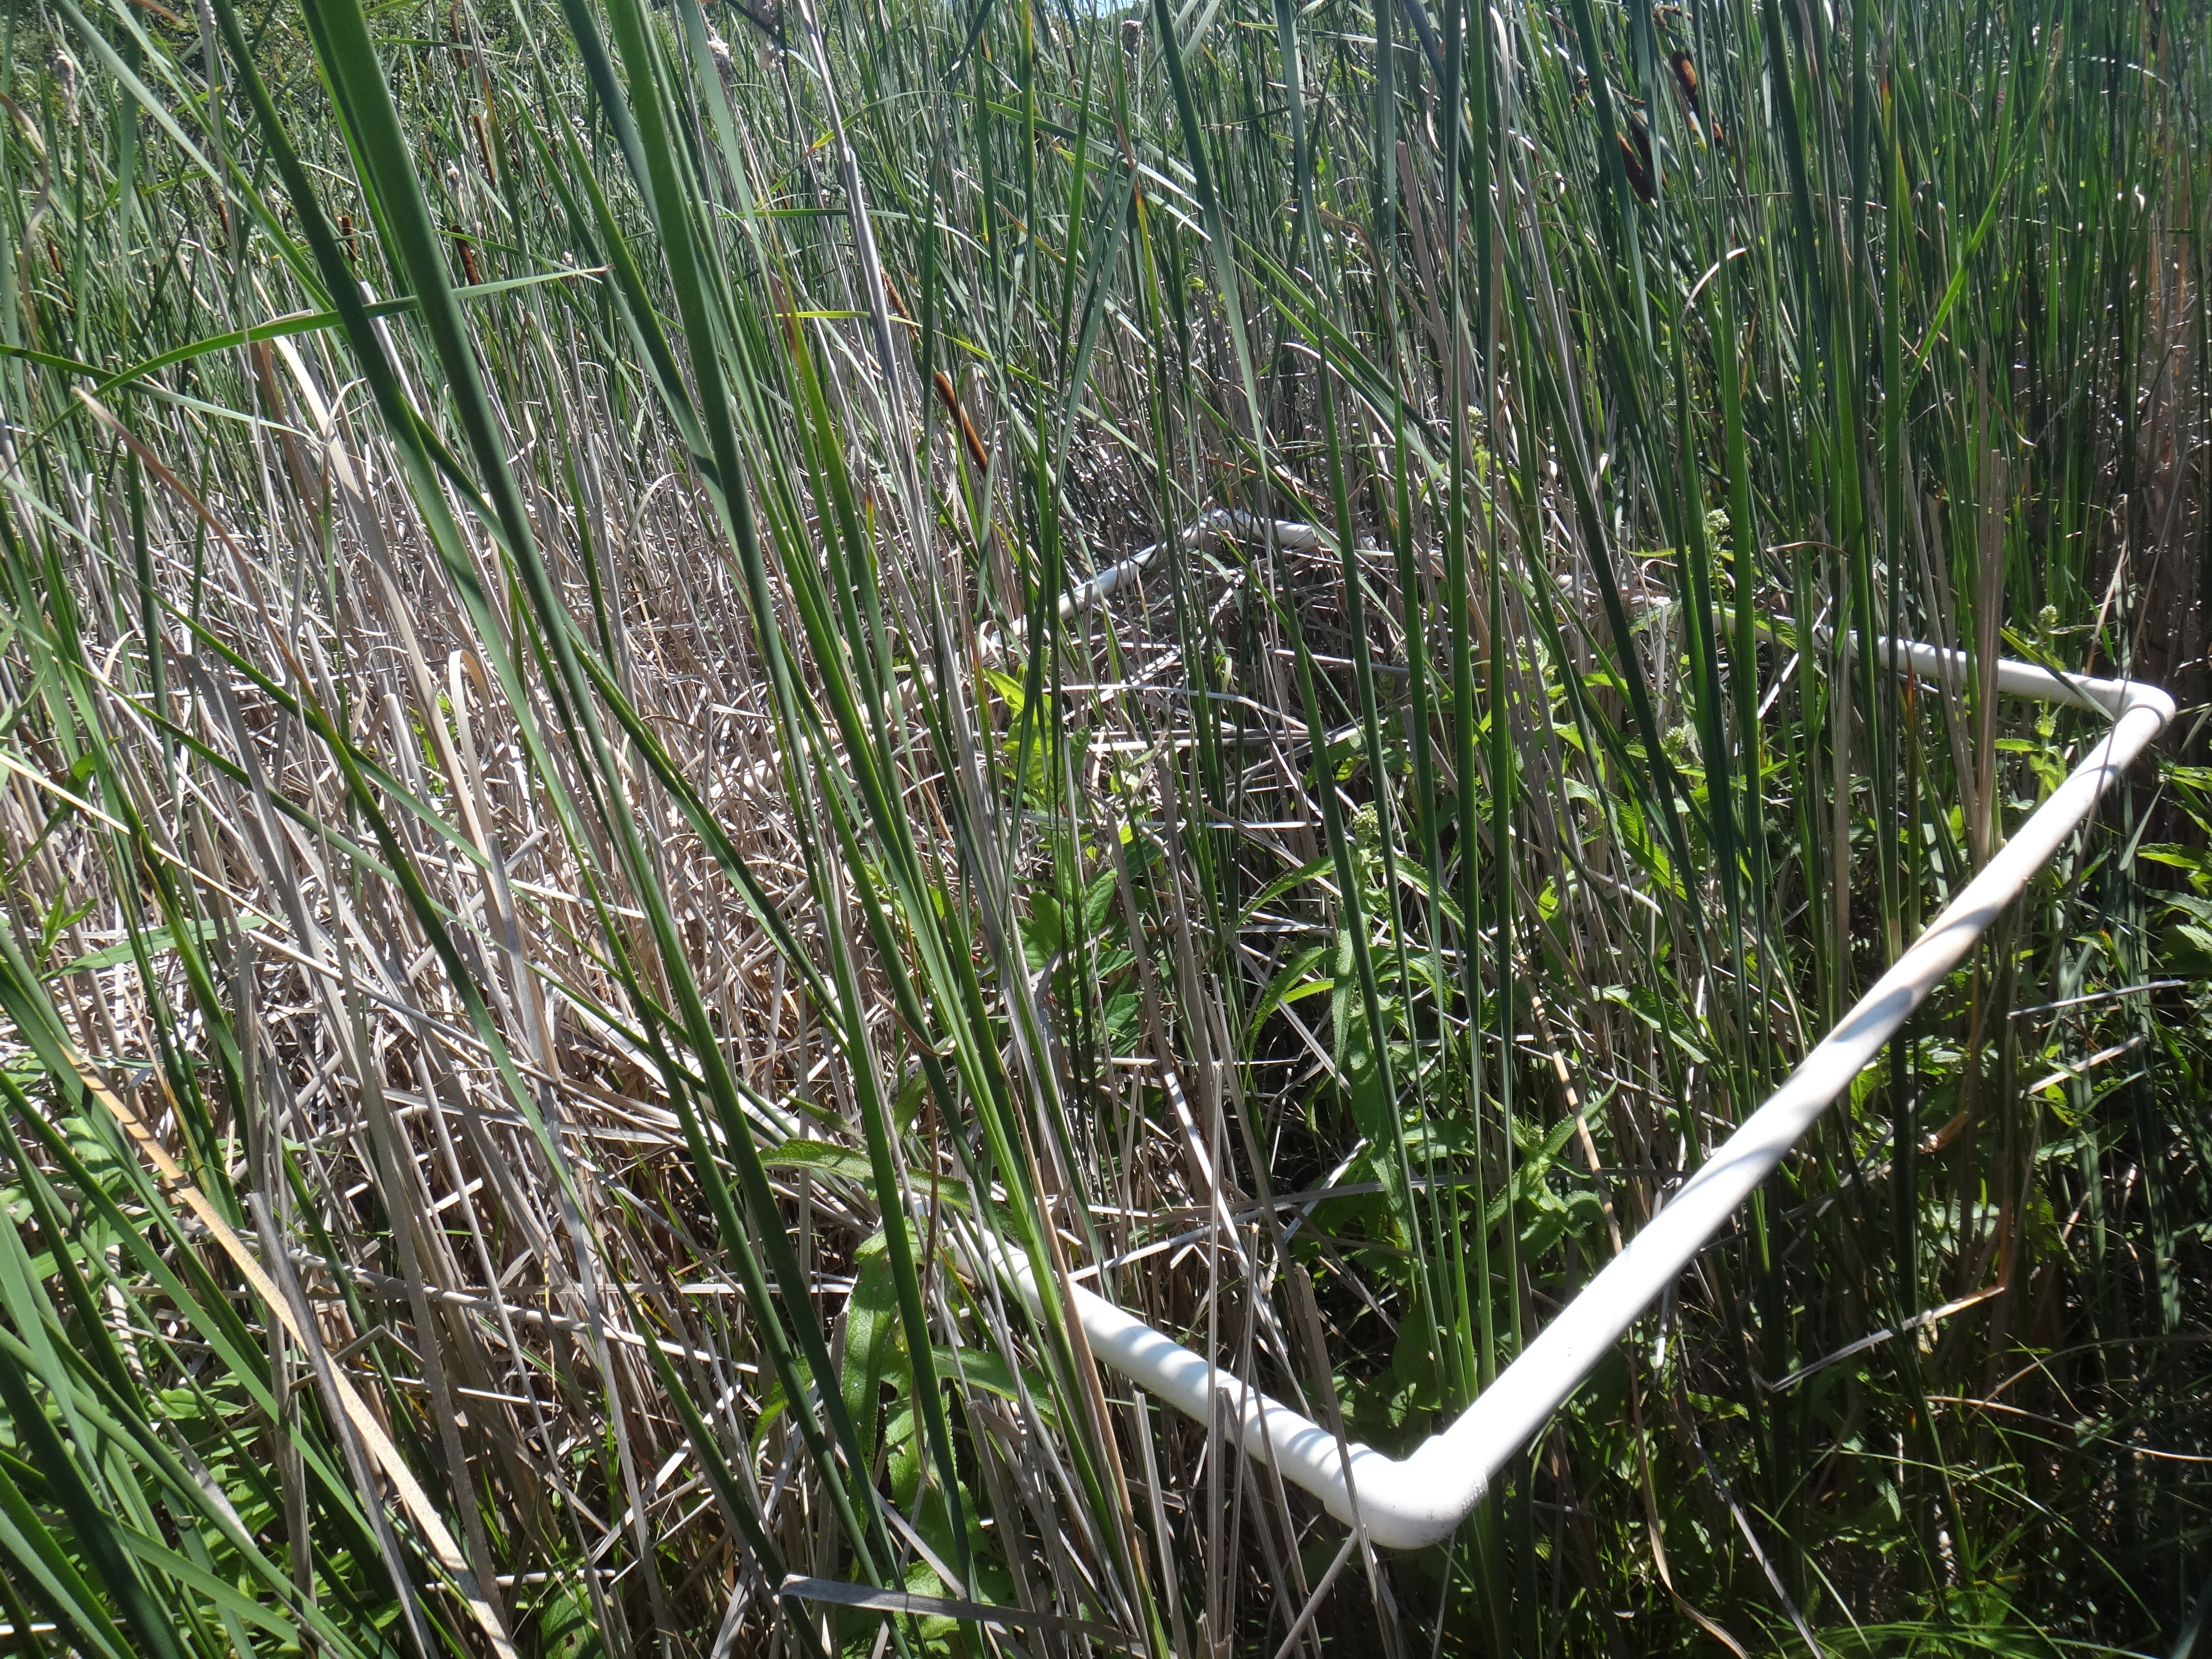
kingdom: Plantae
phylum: Tracheophyta
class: Magnoliopsida
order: Myrtales
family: Lythraceae
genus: Lythrum
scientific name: Lythrum salicaria
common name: Purple loosestrife
